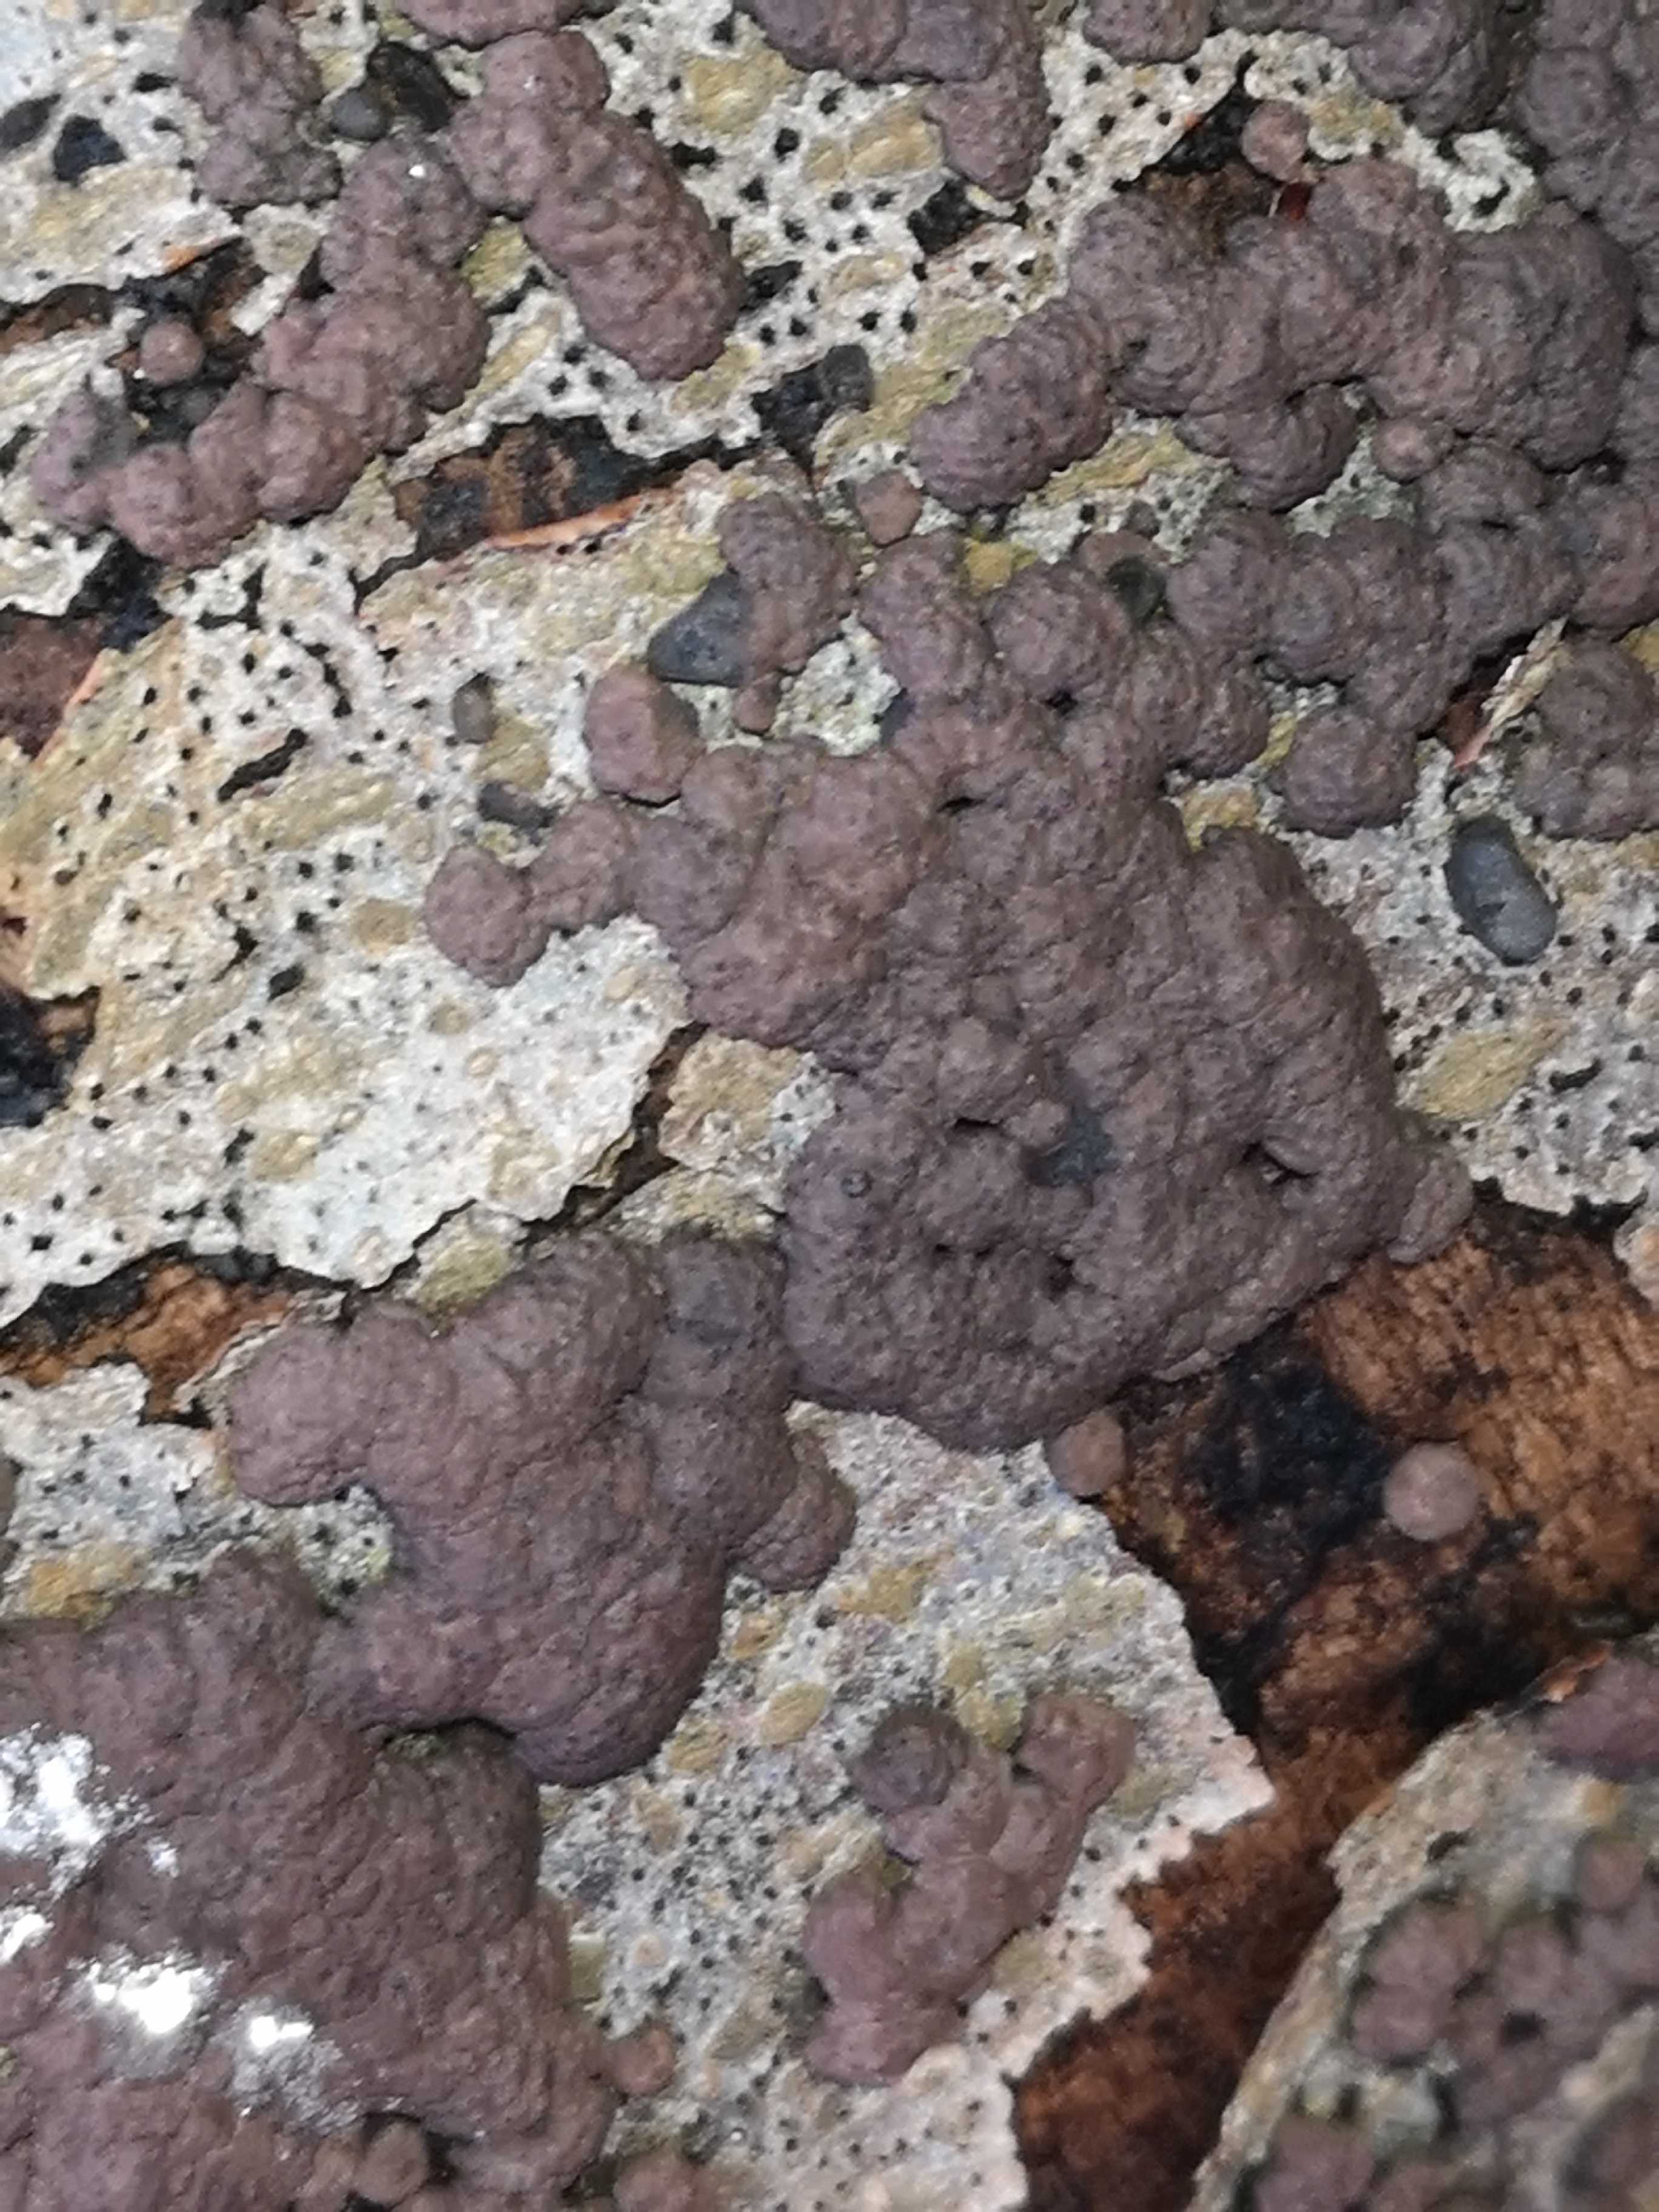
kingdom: Fungi
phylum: Ascomycota
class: Sordariomycetes
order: Xylariales
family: Hypoxylaceae
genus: Jackrogersella
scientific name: Jackrogersella cohaerens
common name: sammenflydende kulbær
